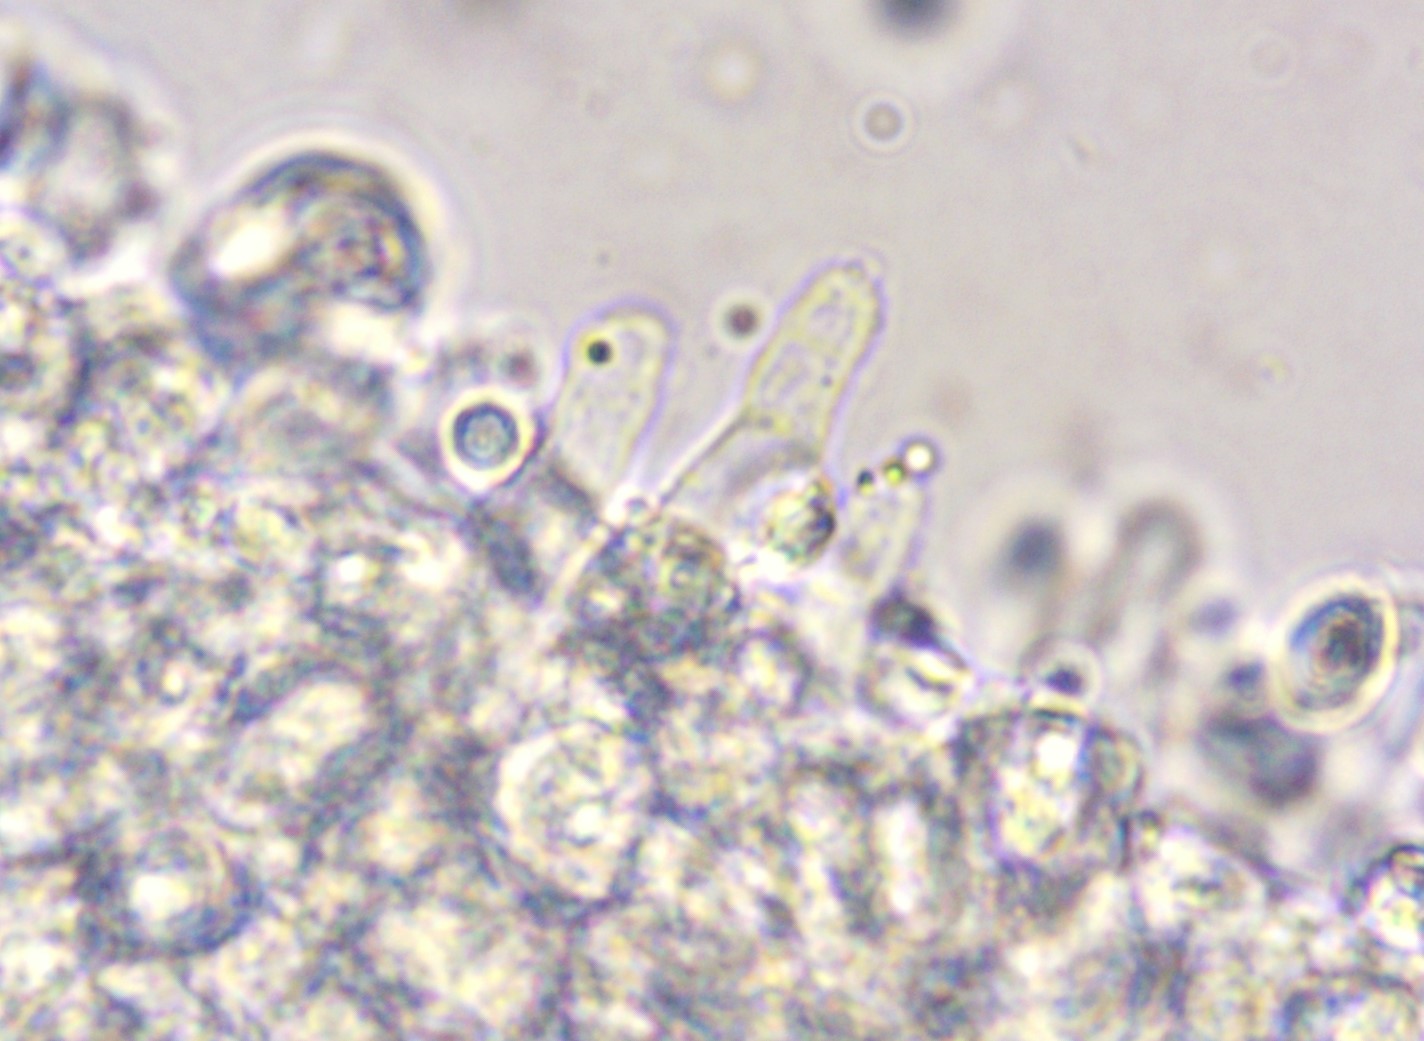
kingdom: Fungi
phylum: Basidiomycota
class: Agaricomycetes
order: Agaricales
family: Porotheleaceae
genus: Phloeomana
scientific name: Phloeomana speirea
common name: kvist-huesvamp
